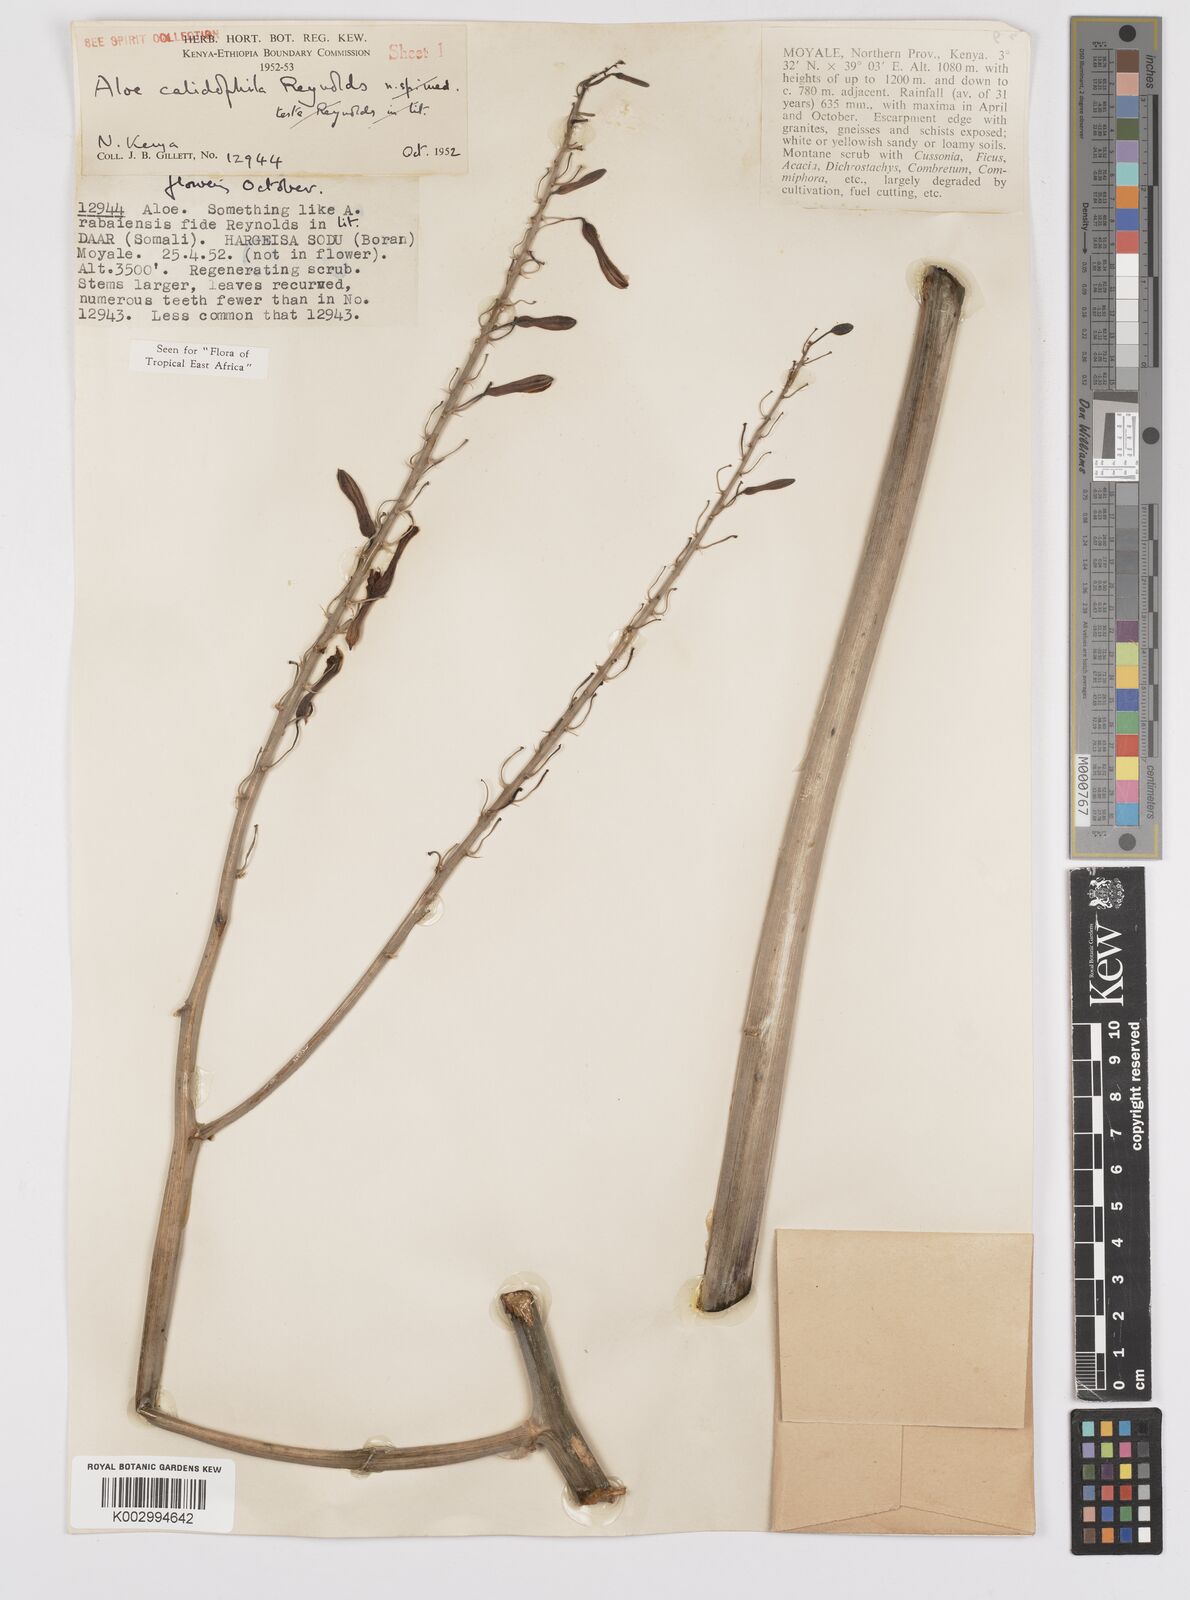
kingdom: Plantae
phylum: Tracheophyta
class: Liliopsida
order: Asparagales
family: Asphodelaceae
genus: Aloe
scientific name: Aloe calidophila
